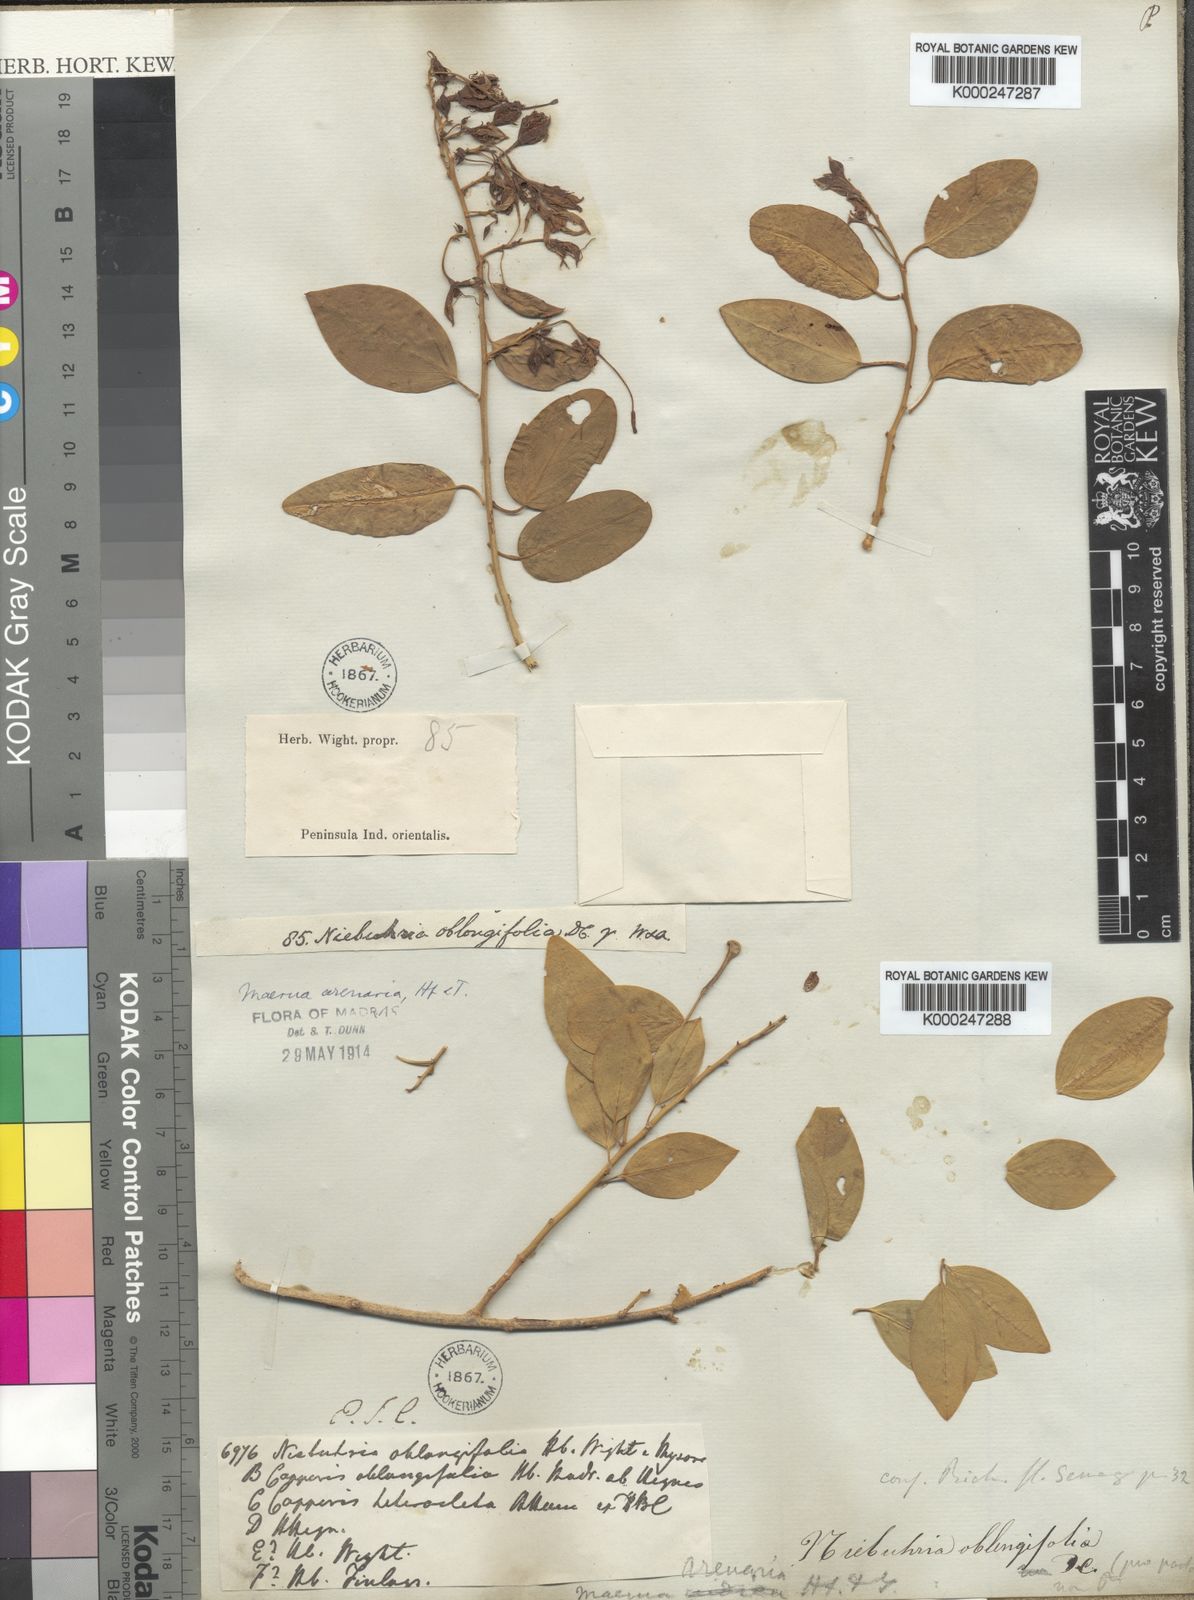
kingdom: Plantae
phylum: Tracheophyta
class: Magnoliopsida
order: Brassicales
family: Capparaceae
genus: Maerua
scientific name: Maerua oblongifolia
